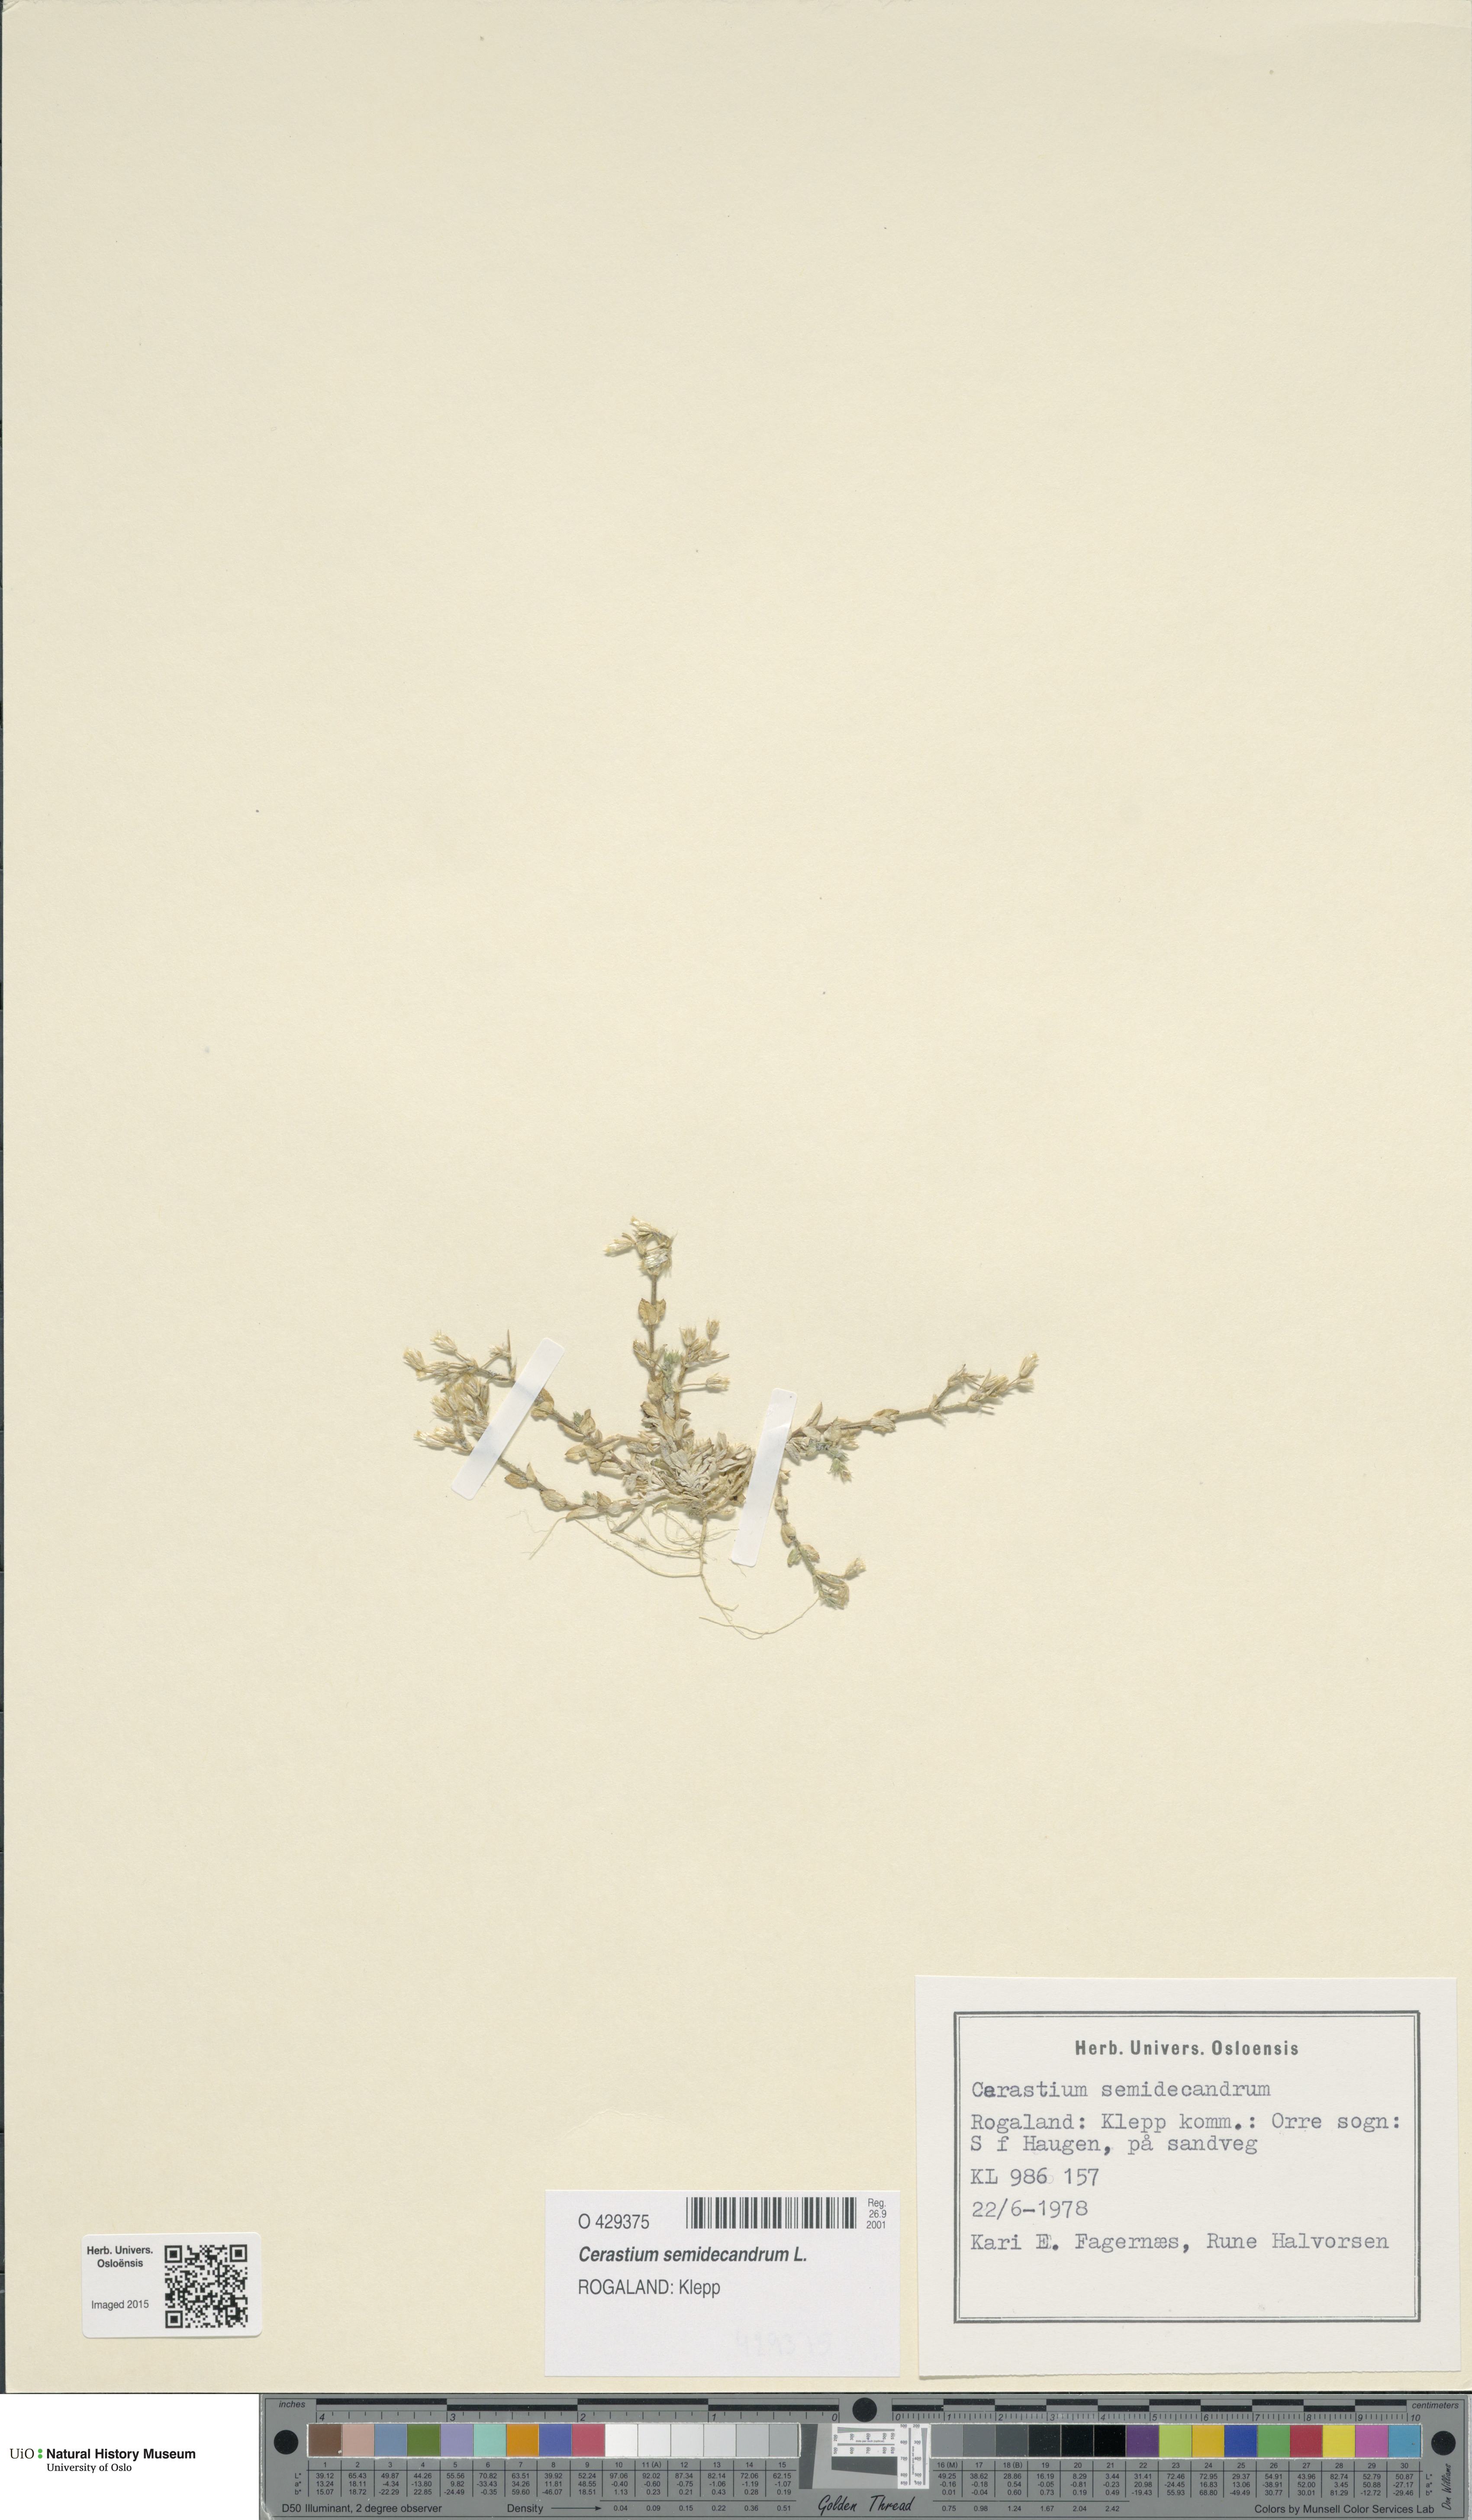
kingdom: Plantae
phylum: Tracheophyta
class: Magnoliopsida
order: Caryophyllales
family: Caryophyllaceae
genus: Cerastium
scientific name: Cerastium semidecandrum
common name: Little mouse-ear
